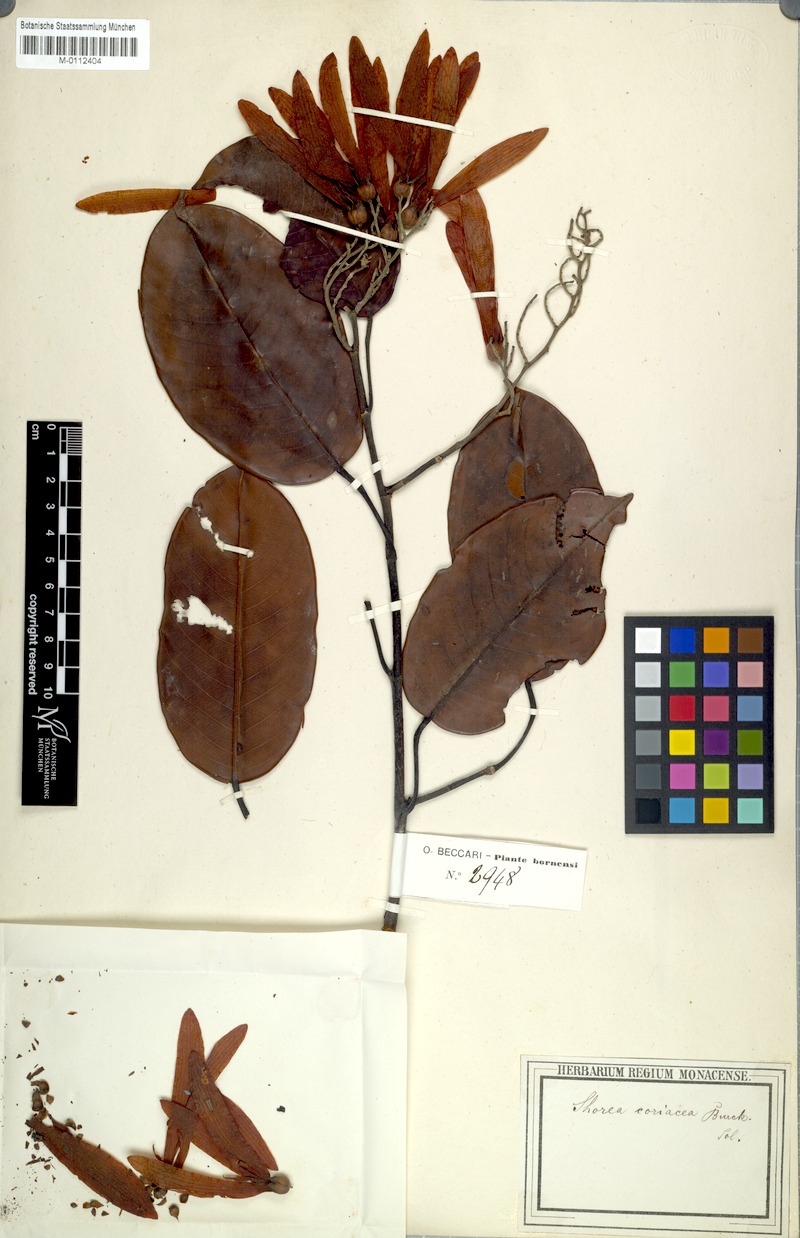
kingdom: Plantae
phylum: Tracheophyta
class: Magnoliopsida
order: Malvales
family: Dipterocarpaceae
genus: Shorea
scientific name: Shorea coriacea
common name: Seraya tangkai panjang
